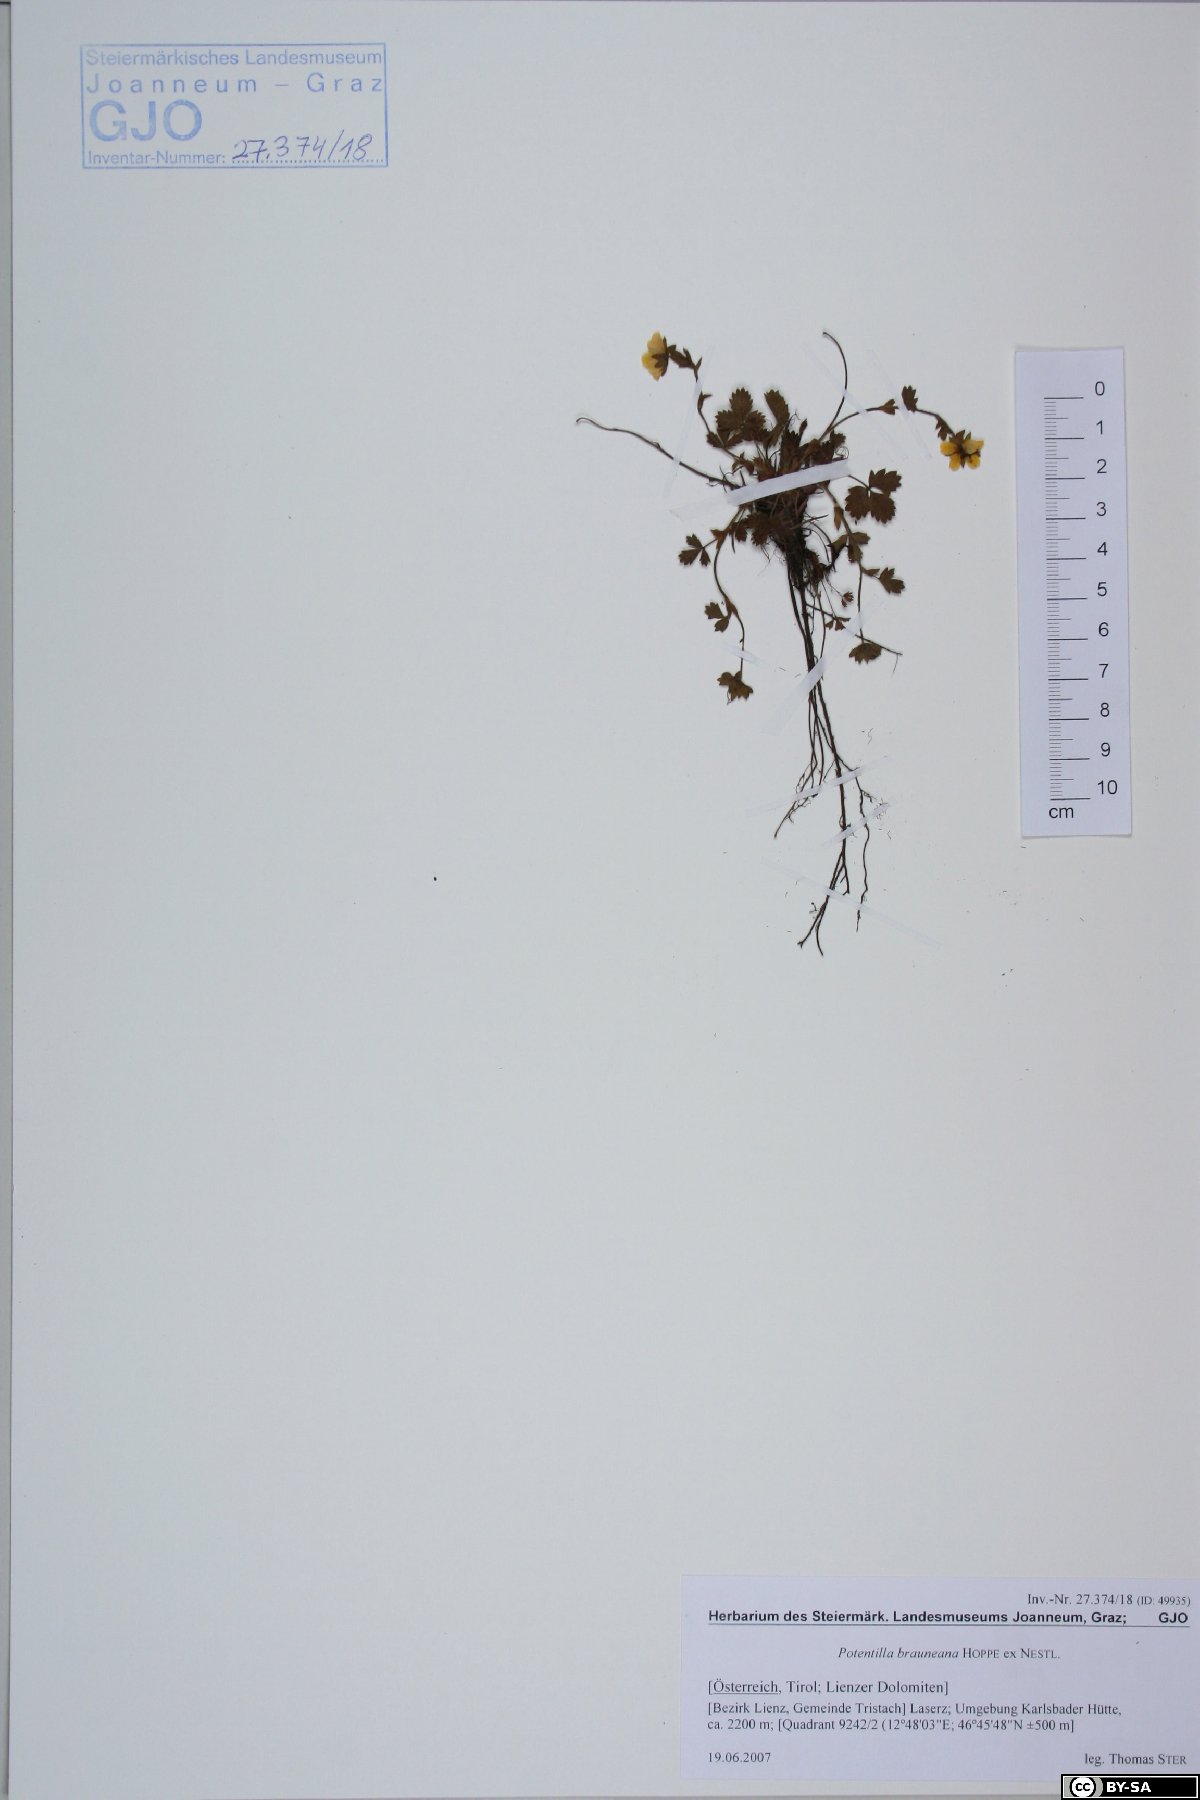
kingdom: Plantae
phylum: Tracheophyta
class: Magnoliopsida
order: Rosales
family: Rosaceae
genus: Potentilla
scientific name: Potentilla brauneana
